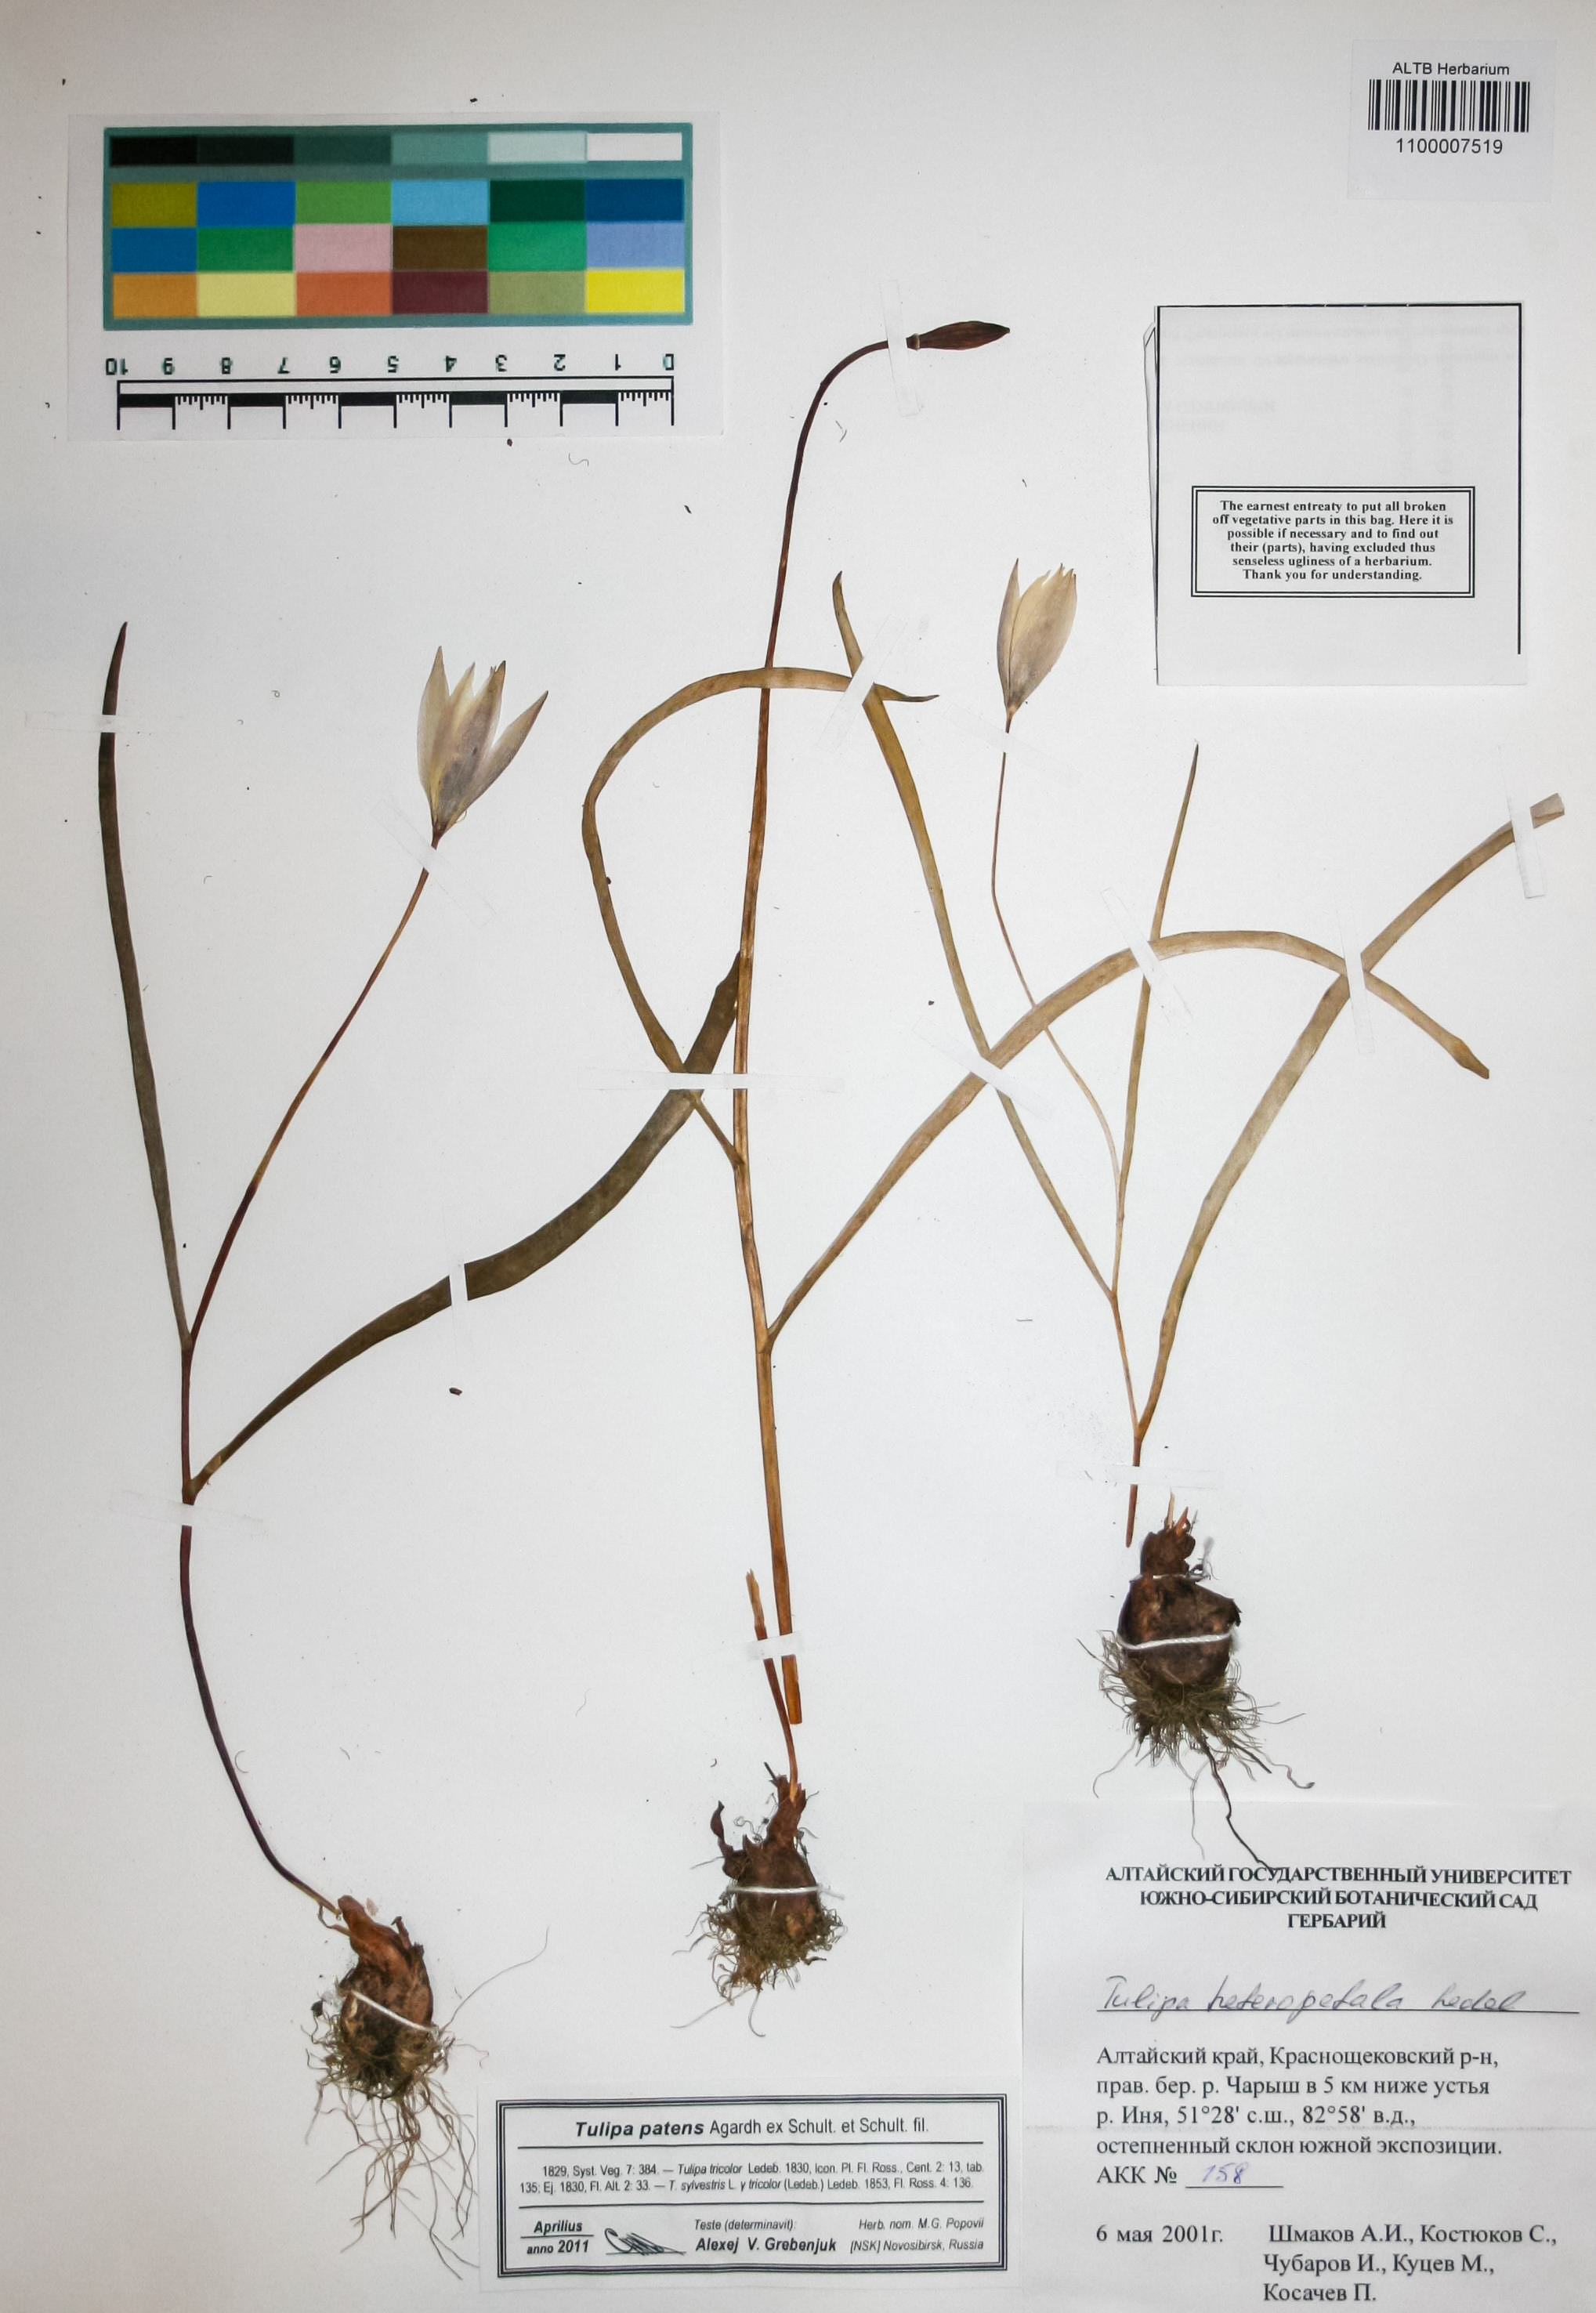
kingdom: Plantae
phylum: Tracheophyta
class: Liliopsida
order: Liliales
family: Liliaceae
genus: Tulipa
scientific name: Tulipa patens
